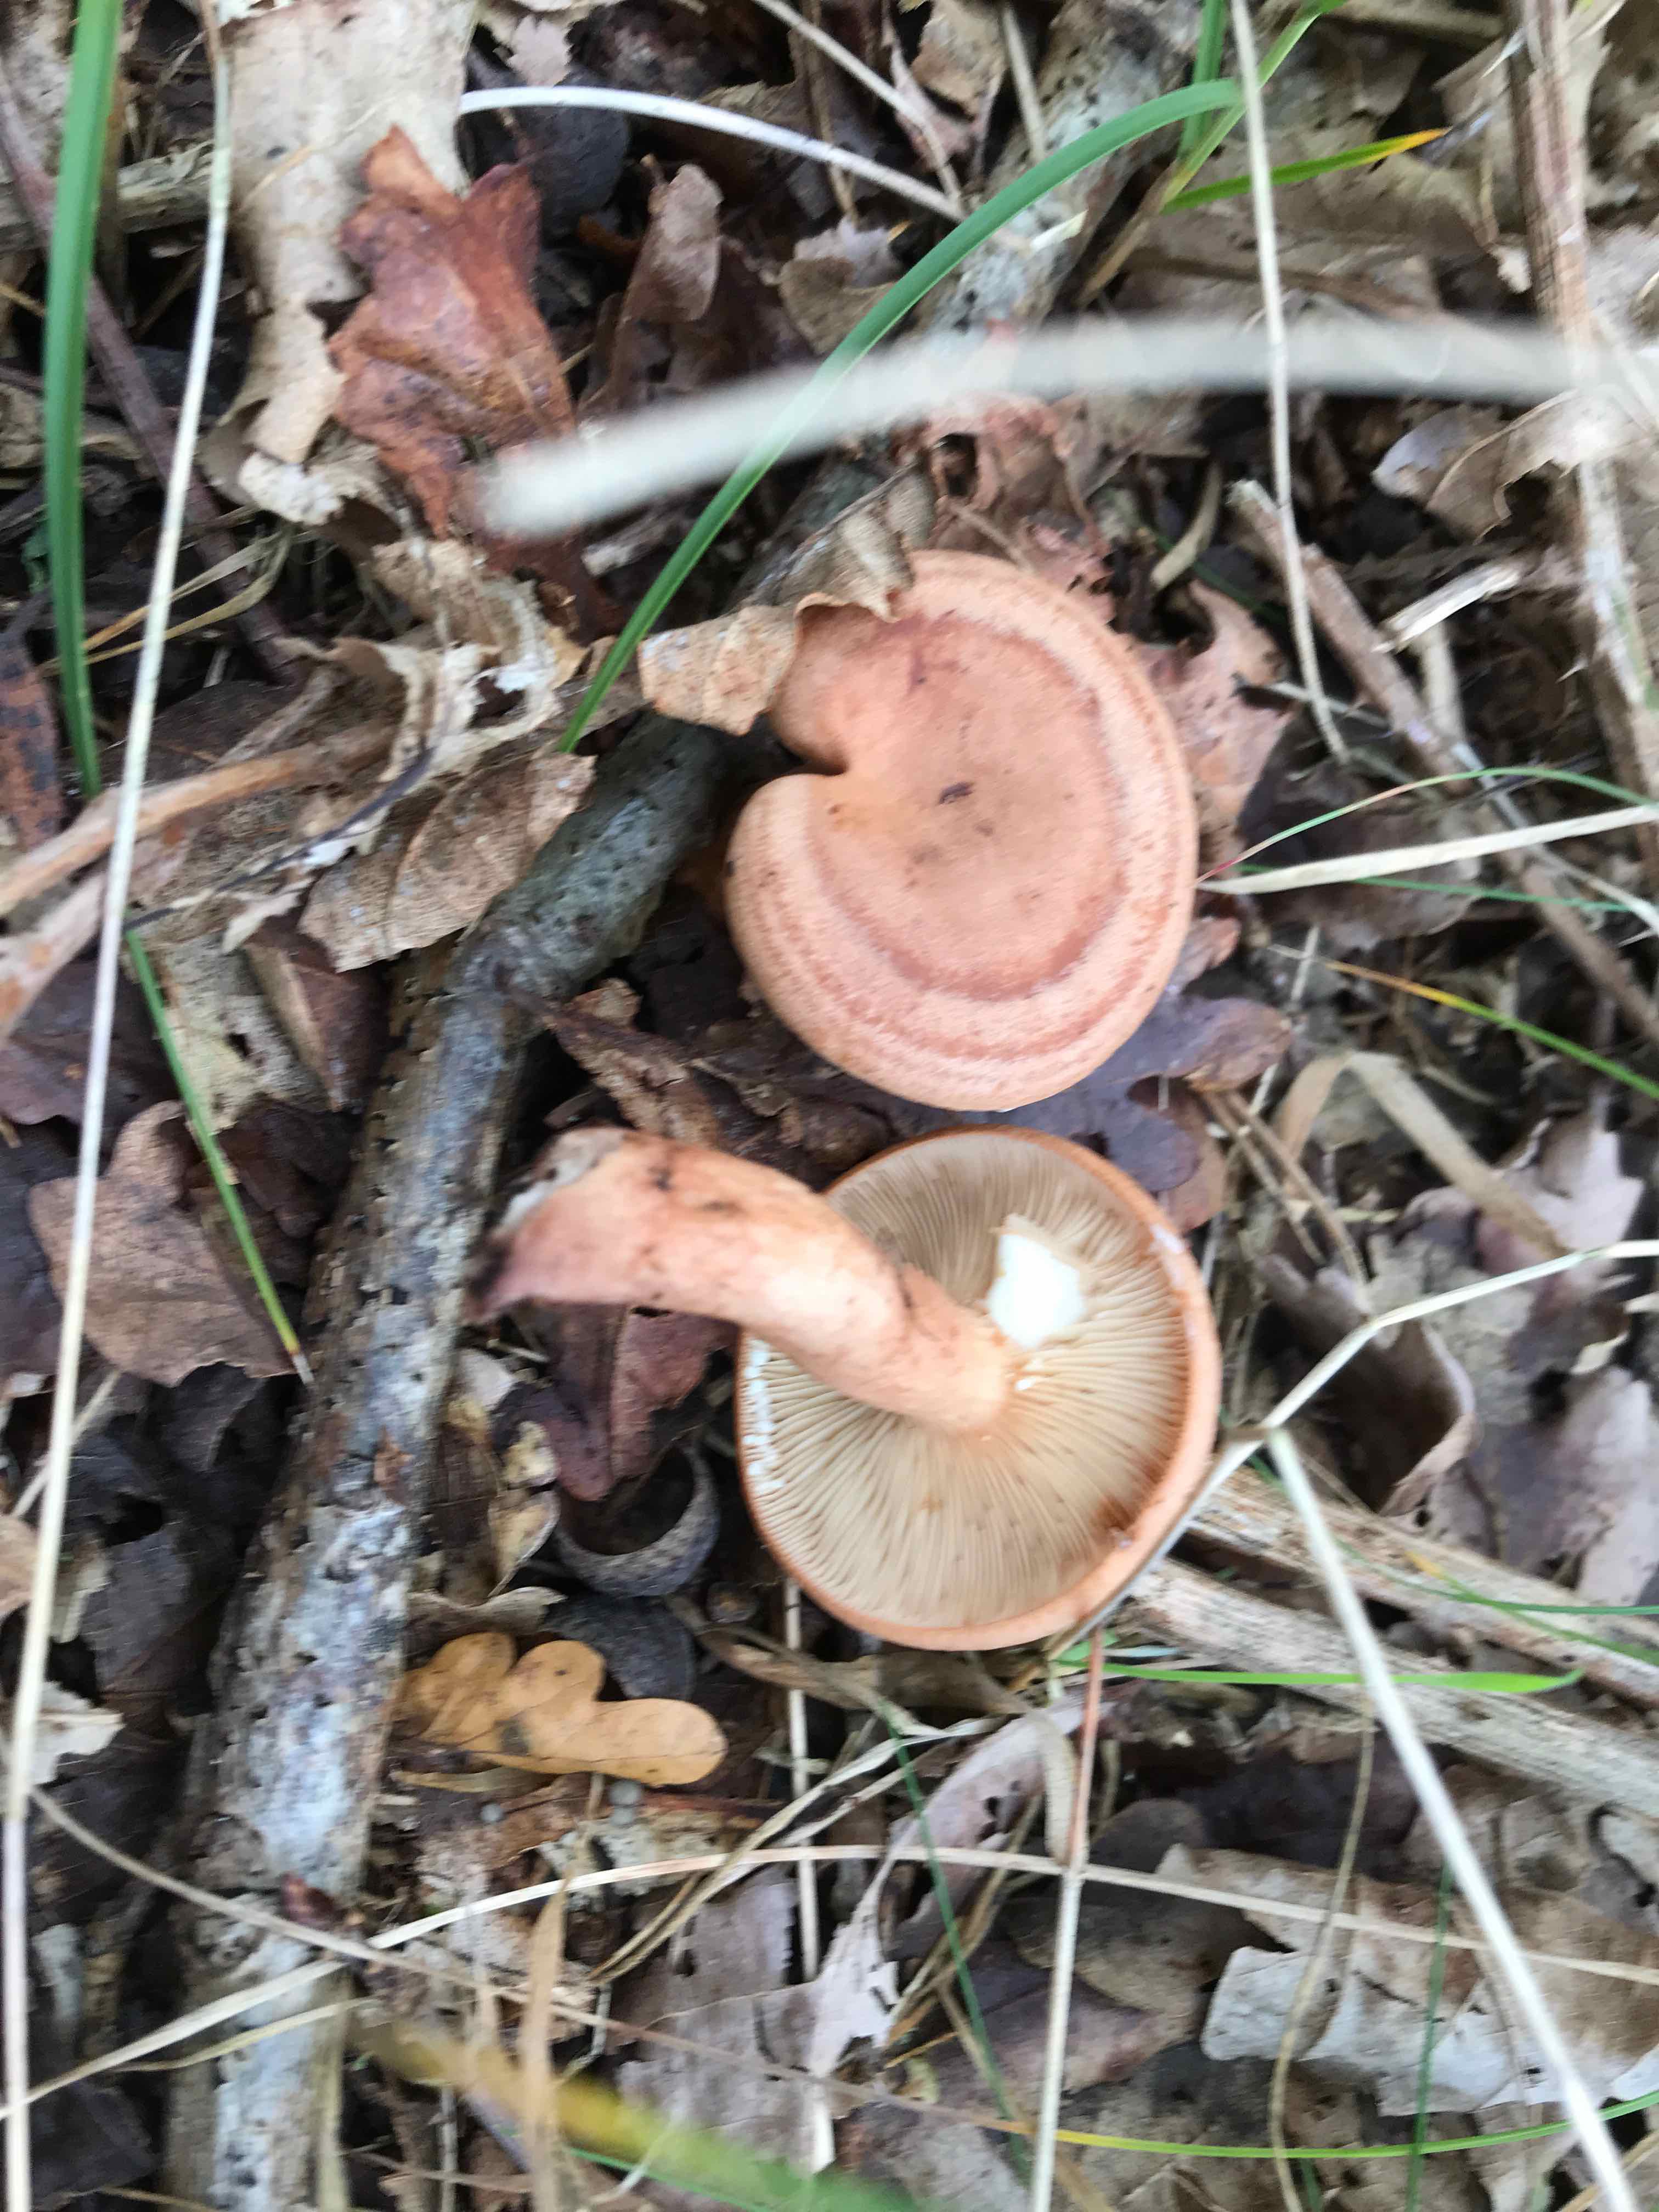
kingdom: Fungi
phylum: Basidiomycota
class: Agaricomycetes
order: Russulales
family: Russulaceae
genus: Lactarius
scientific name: Lactarius quietus
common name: ege-mælkehat
